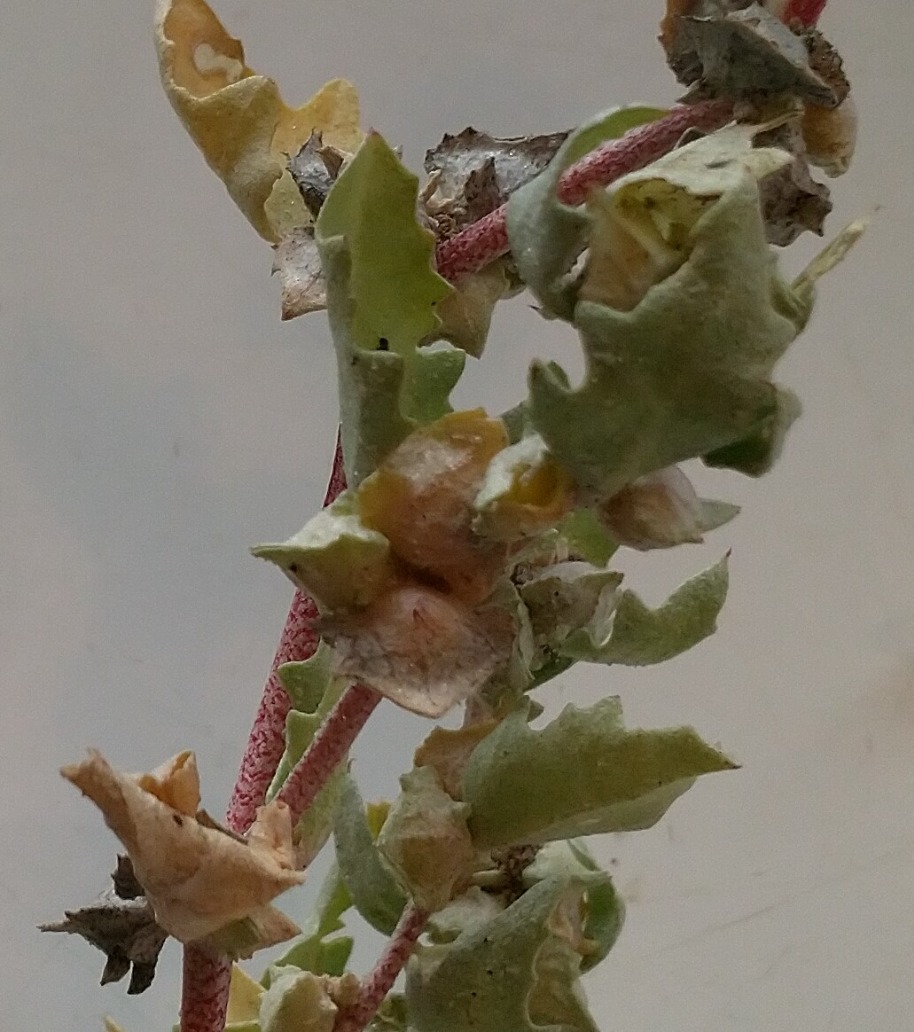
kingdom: Plantae
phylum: Tracheophyta
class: Magnoliopsida
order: Caryophyllales
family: Amaranthaceae
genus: Atriplex
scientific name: Atriplex laciniata
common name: Sølv-mælde
